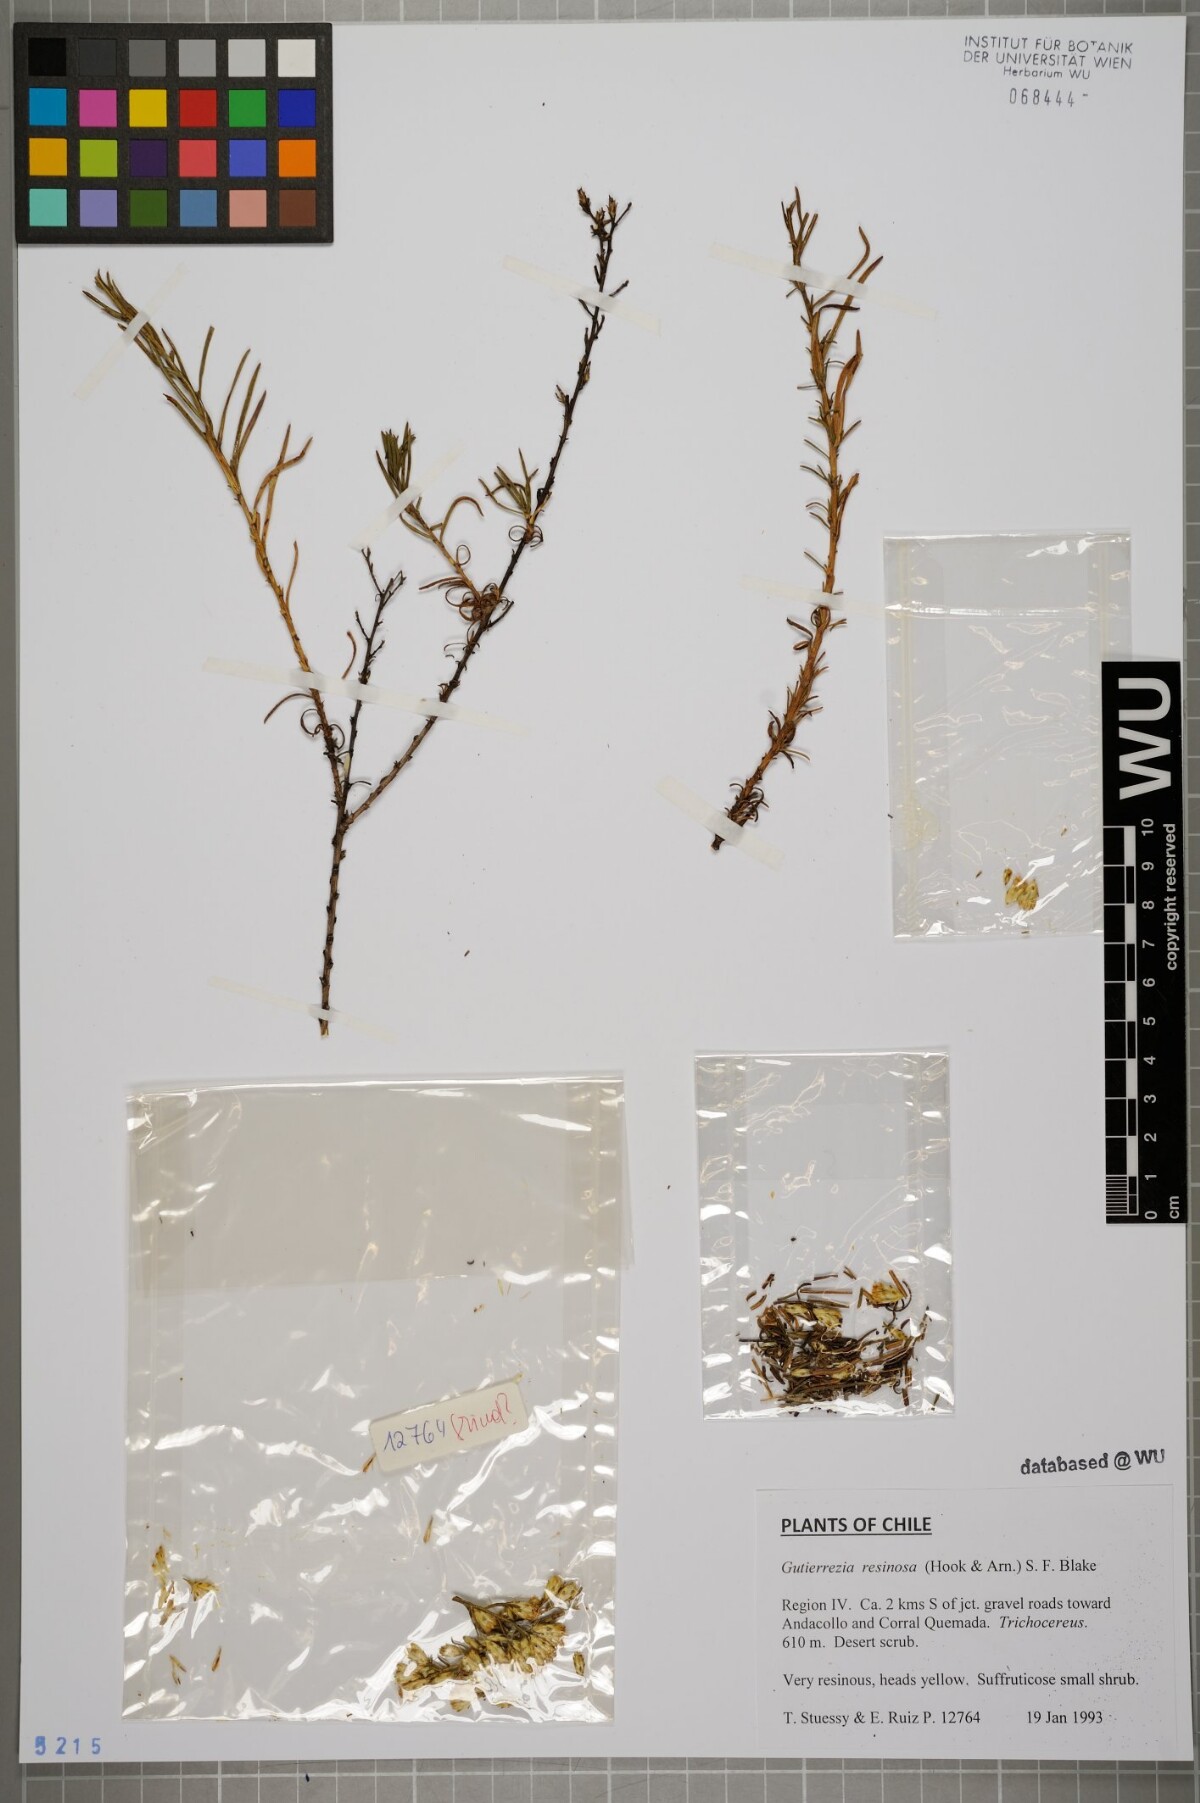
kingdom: Plantae
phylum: Tracheophyta
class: Magnoliopsida
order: Asterales
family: Asteraceae
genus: Gutierrezia
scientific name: Gutierrezia
